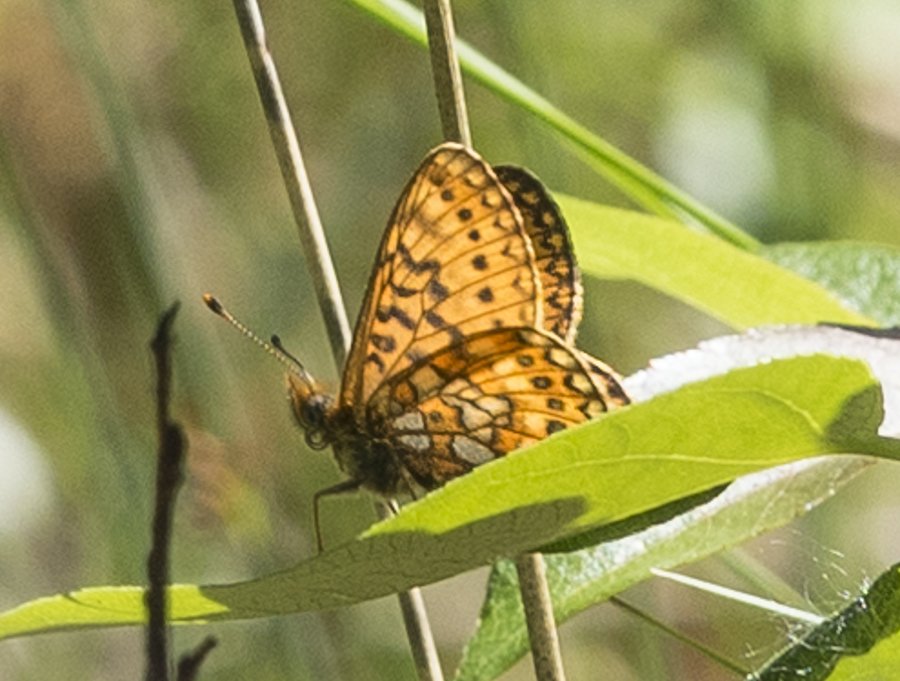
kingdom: Animalia
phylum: Arthropoda
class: Insecta
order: Lepidoptera
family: Nymphalidae
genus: Boloria
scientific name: Boloria eunomia
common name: Bog Fritillary
